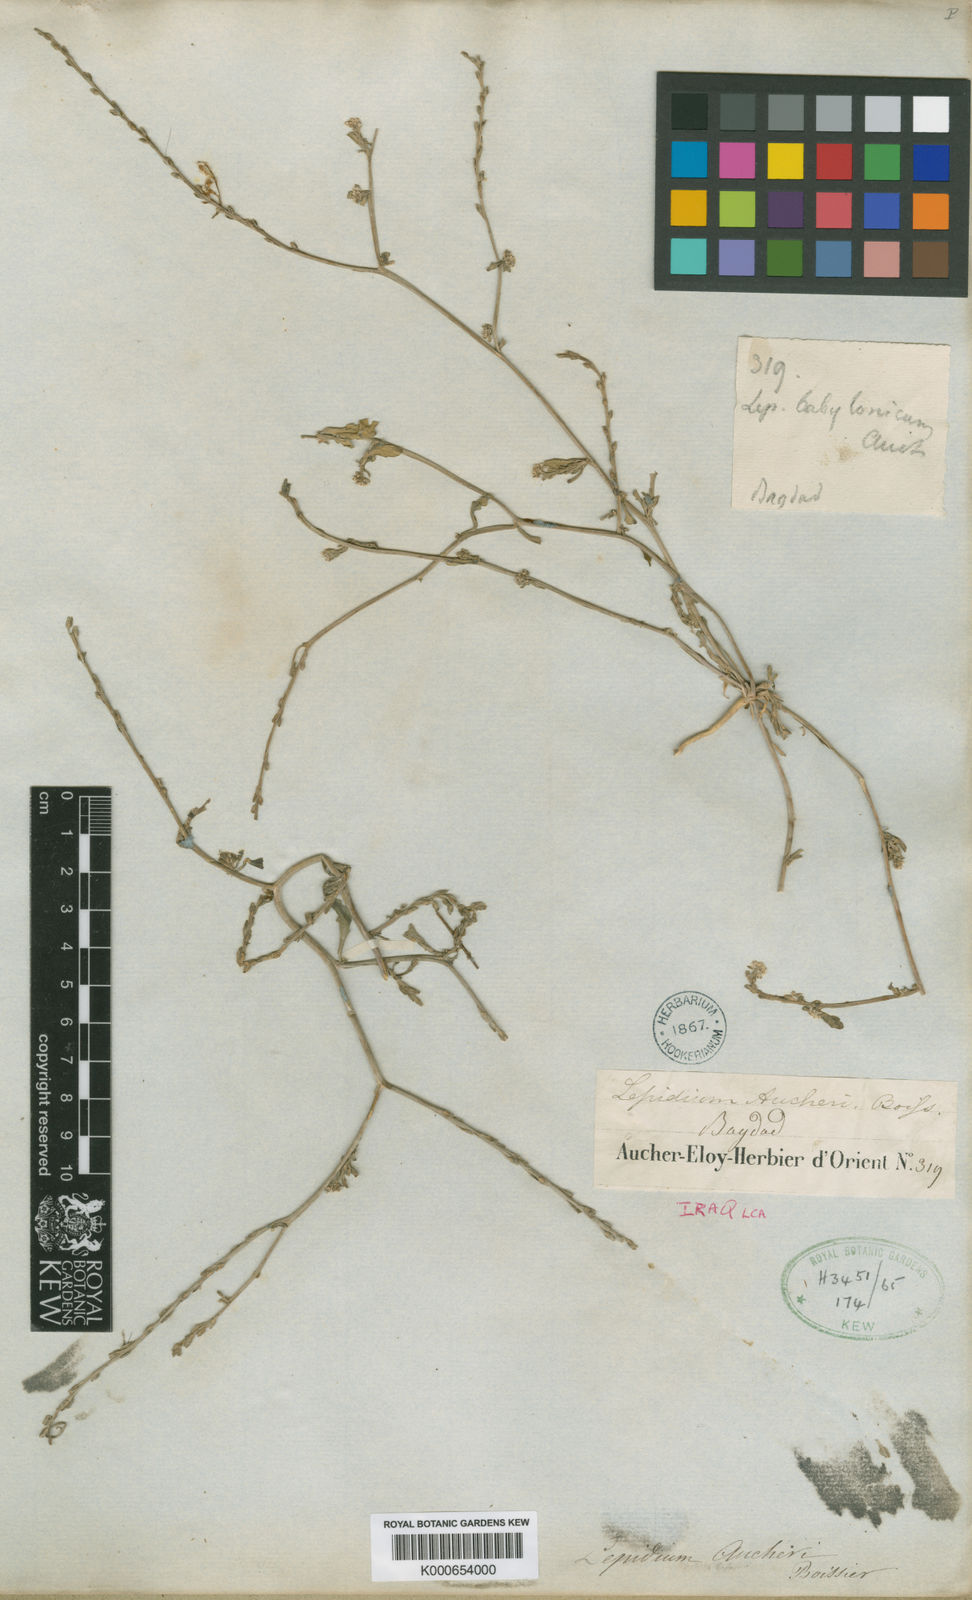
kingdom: Plantae
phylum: Tracheophyta
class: Magnoliopsida
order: Brassicales
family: Brassicaceae
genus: Lepidium
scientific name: Lepidium aucheri
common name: Aucher's peppergrass
